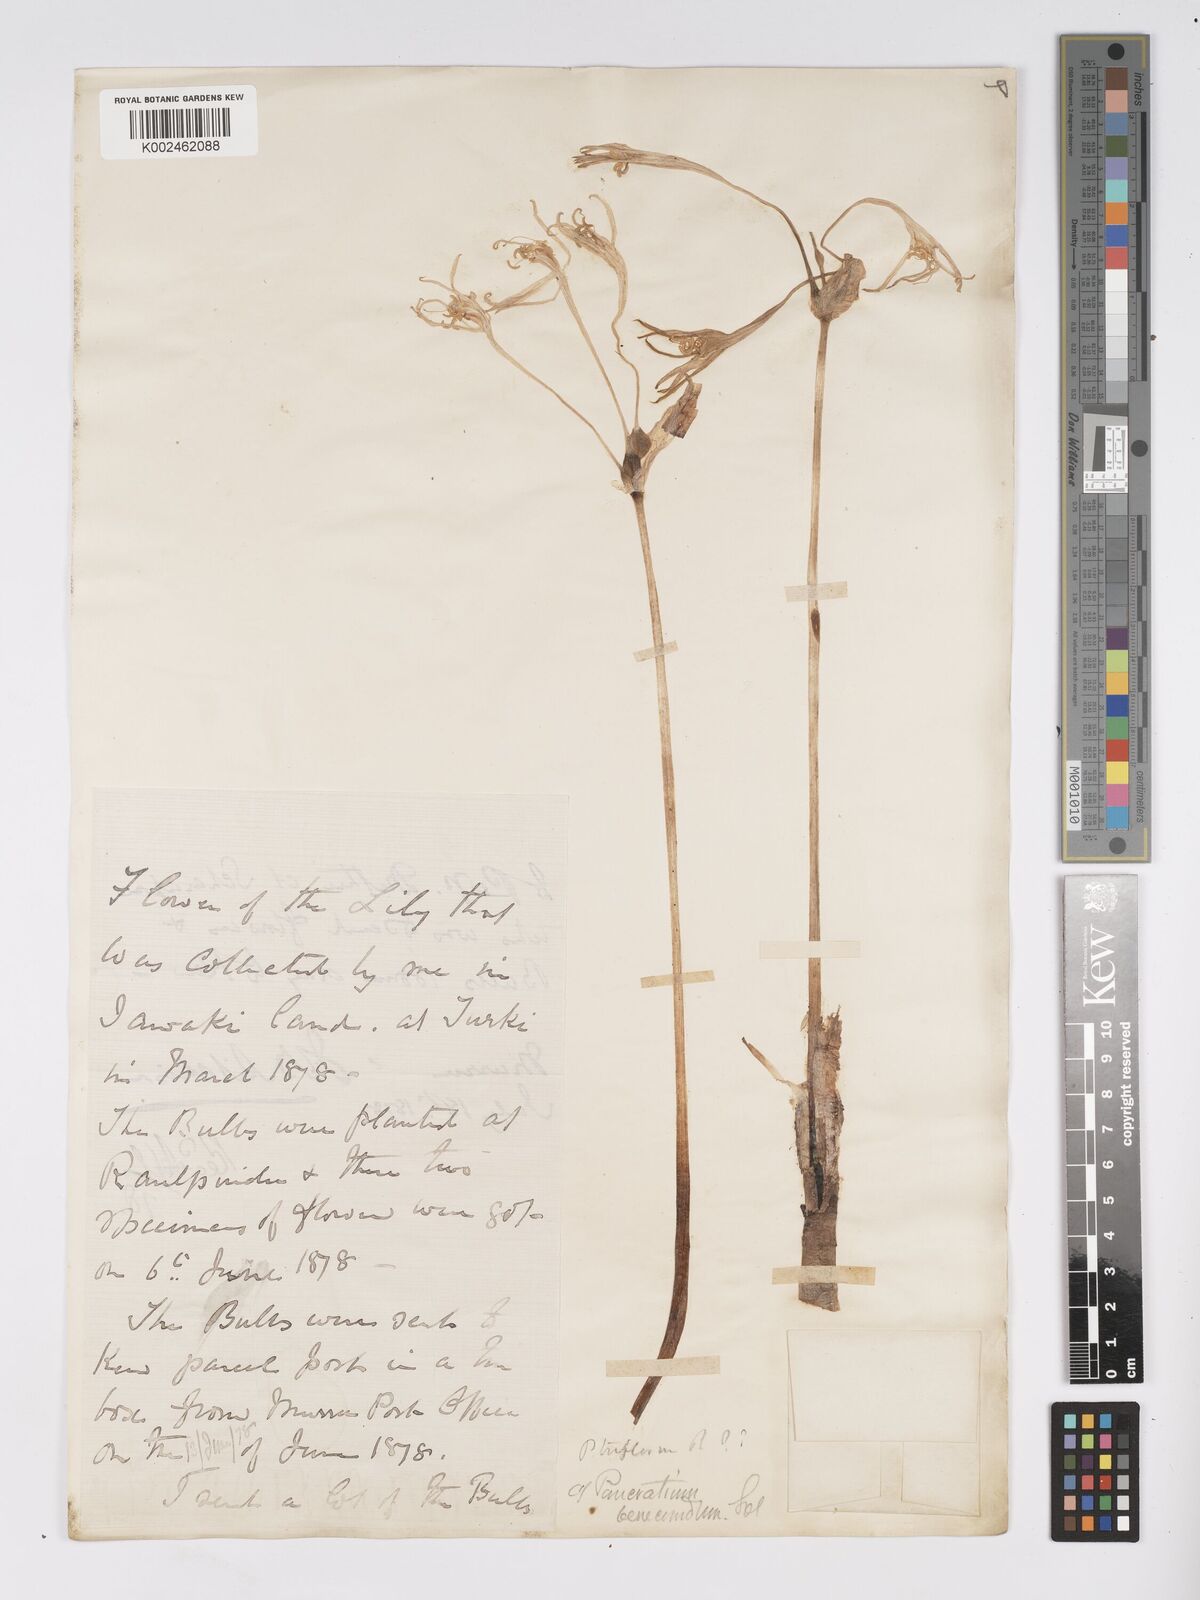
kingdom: Plantae
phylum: Tracheophyta
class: Liliopsida
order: Asparagales
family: Amaryllidaceae
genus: Pancratium
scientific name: Pancratium triflorum
